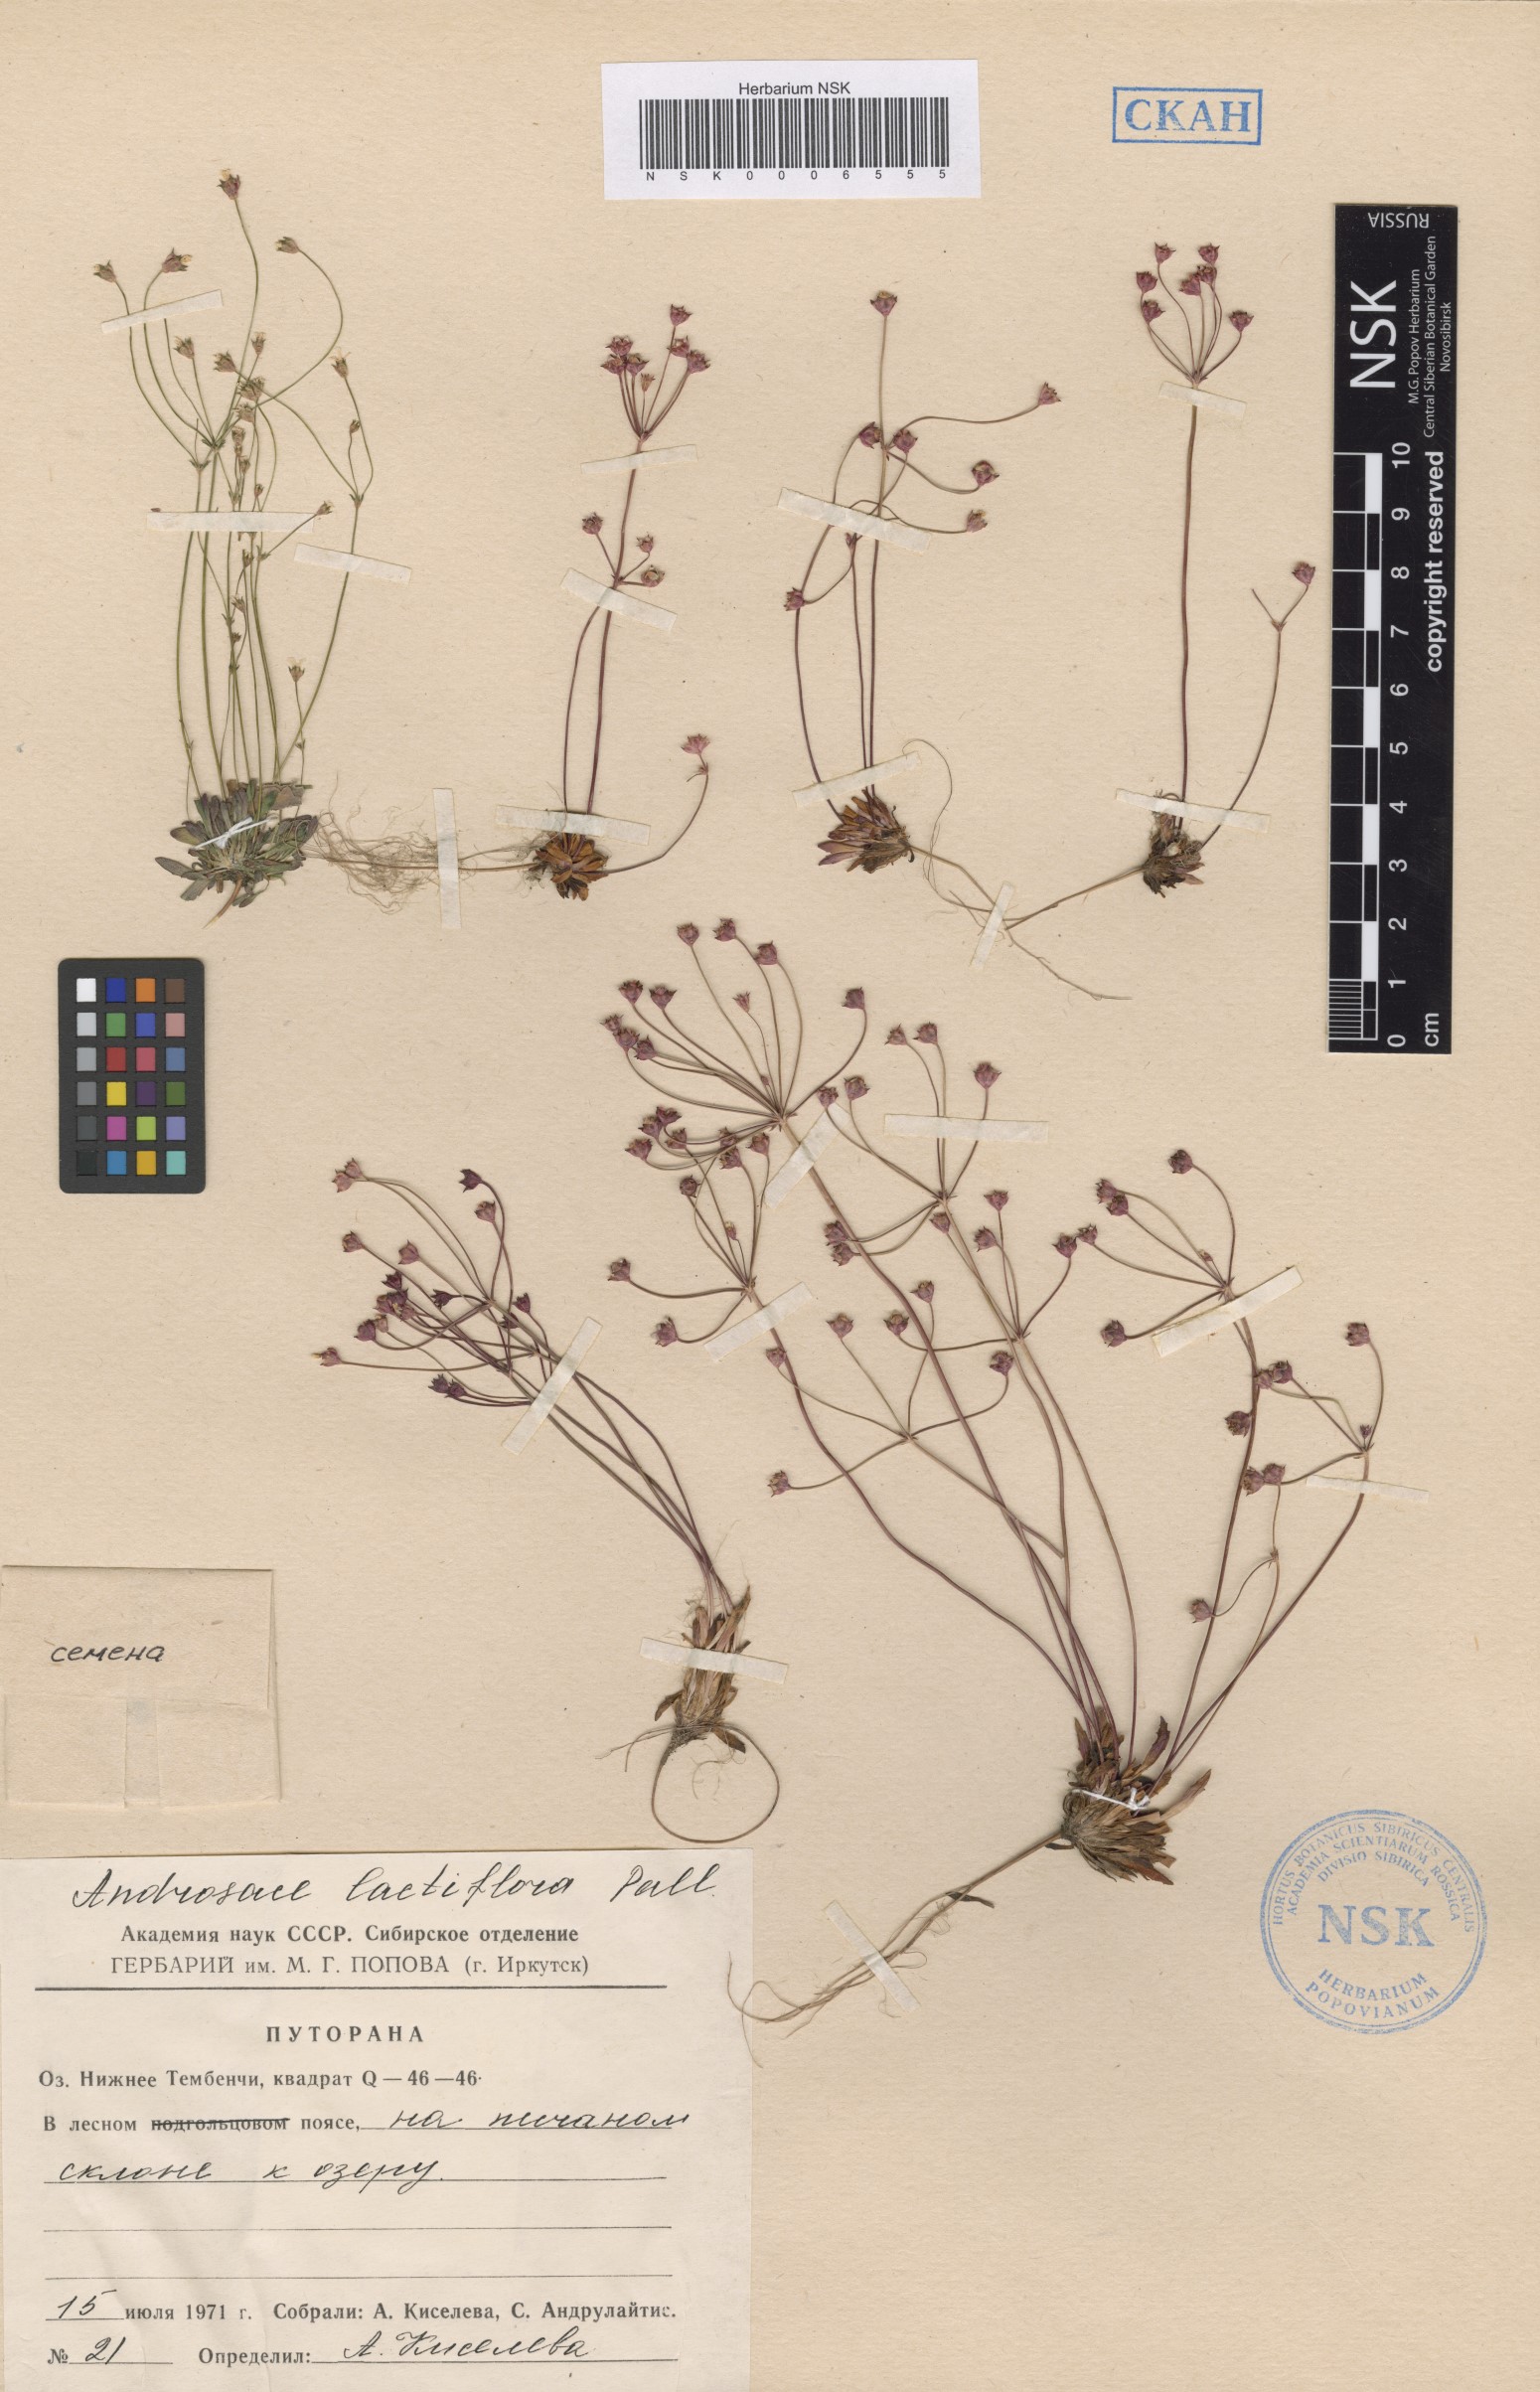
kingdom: Plantae
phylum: Tracheophyta
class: Magnoliopsida
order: Ericales
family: Primulaceae
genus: Androsace
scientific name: Androsace lactiflora
